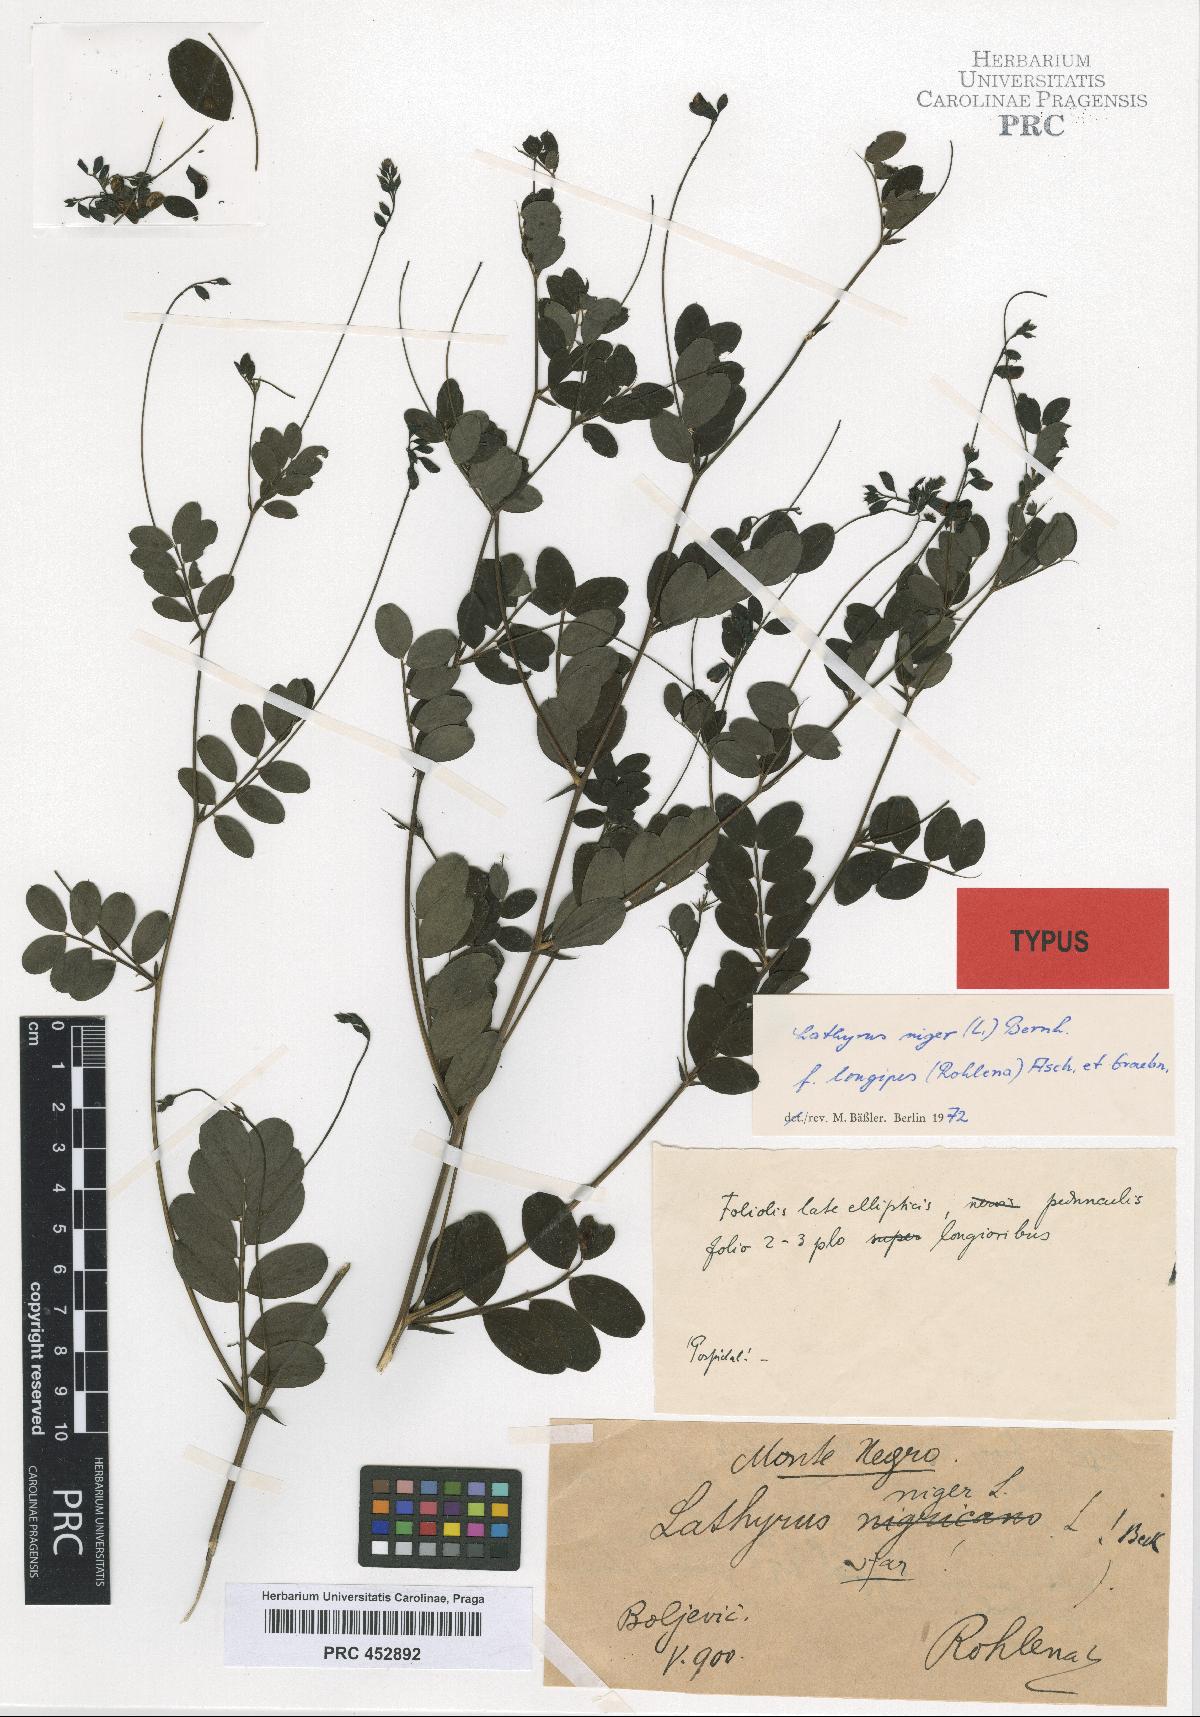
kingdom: Plantae
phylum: Tracheophyta
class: Magnoliopsida
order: Fabales
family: Fabaceae
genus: Lathyrus
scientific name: Lathyrus niger
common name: Black pea
